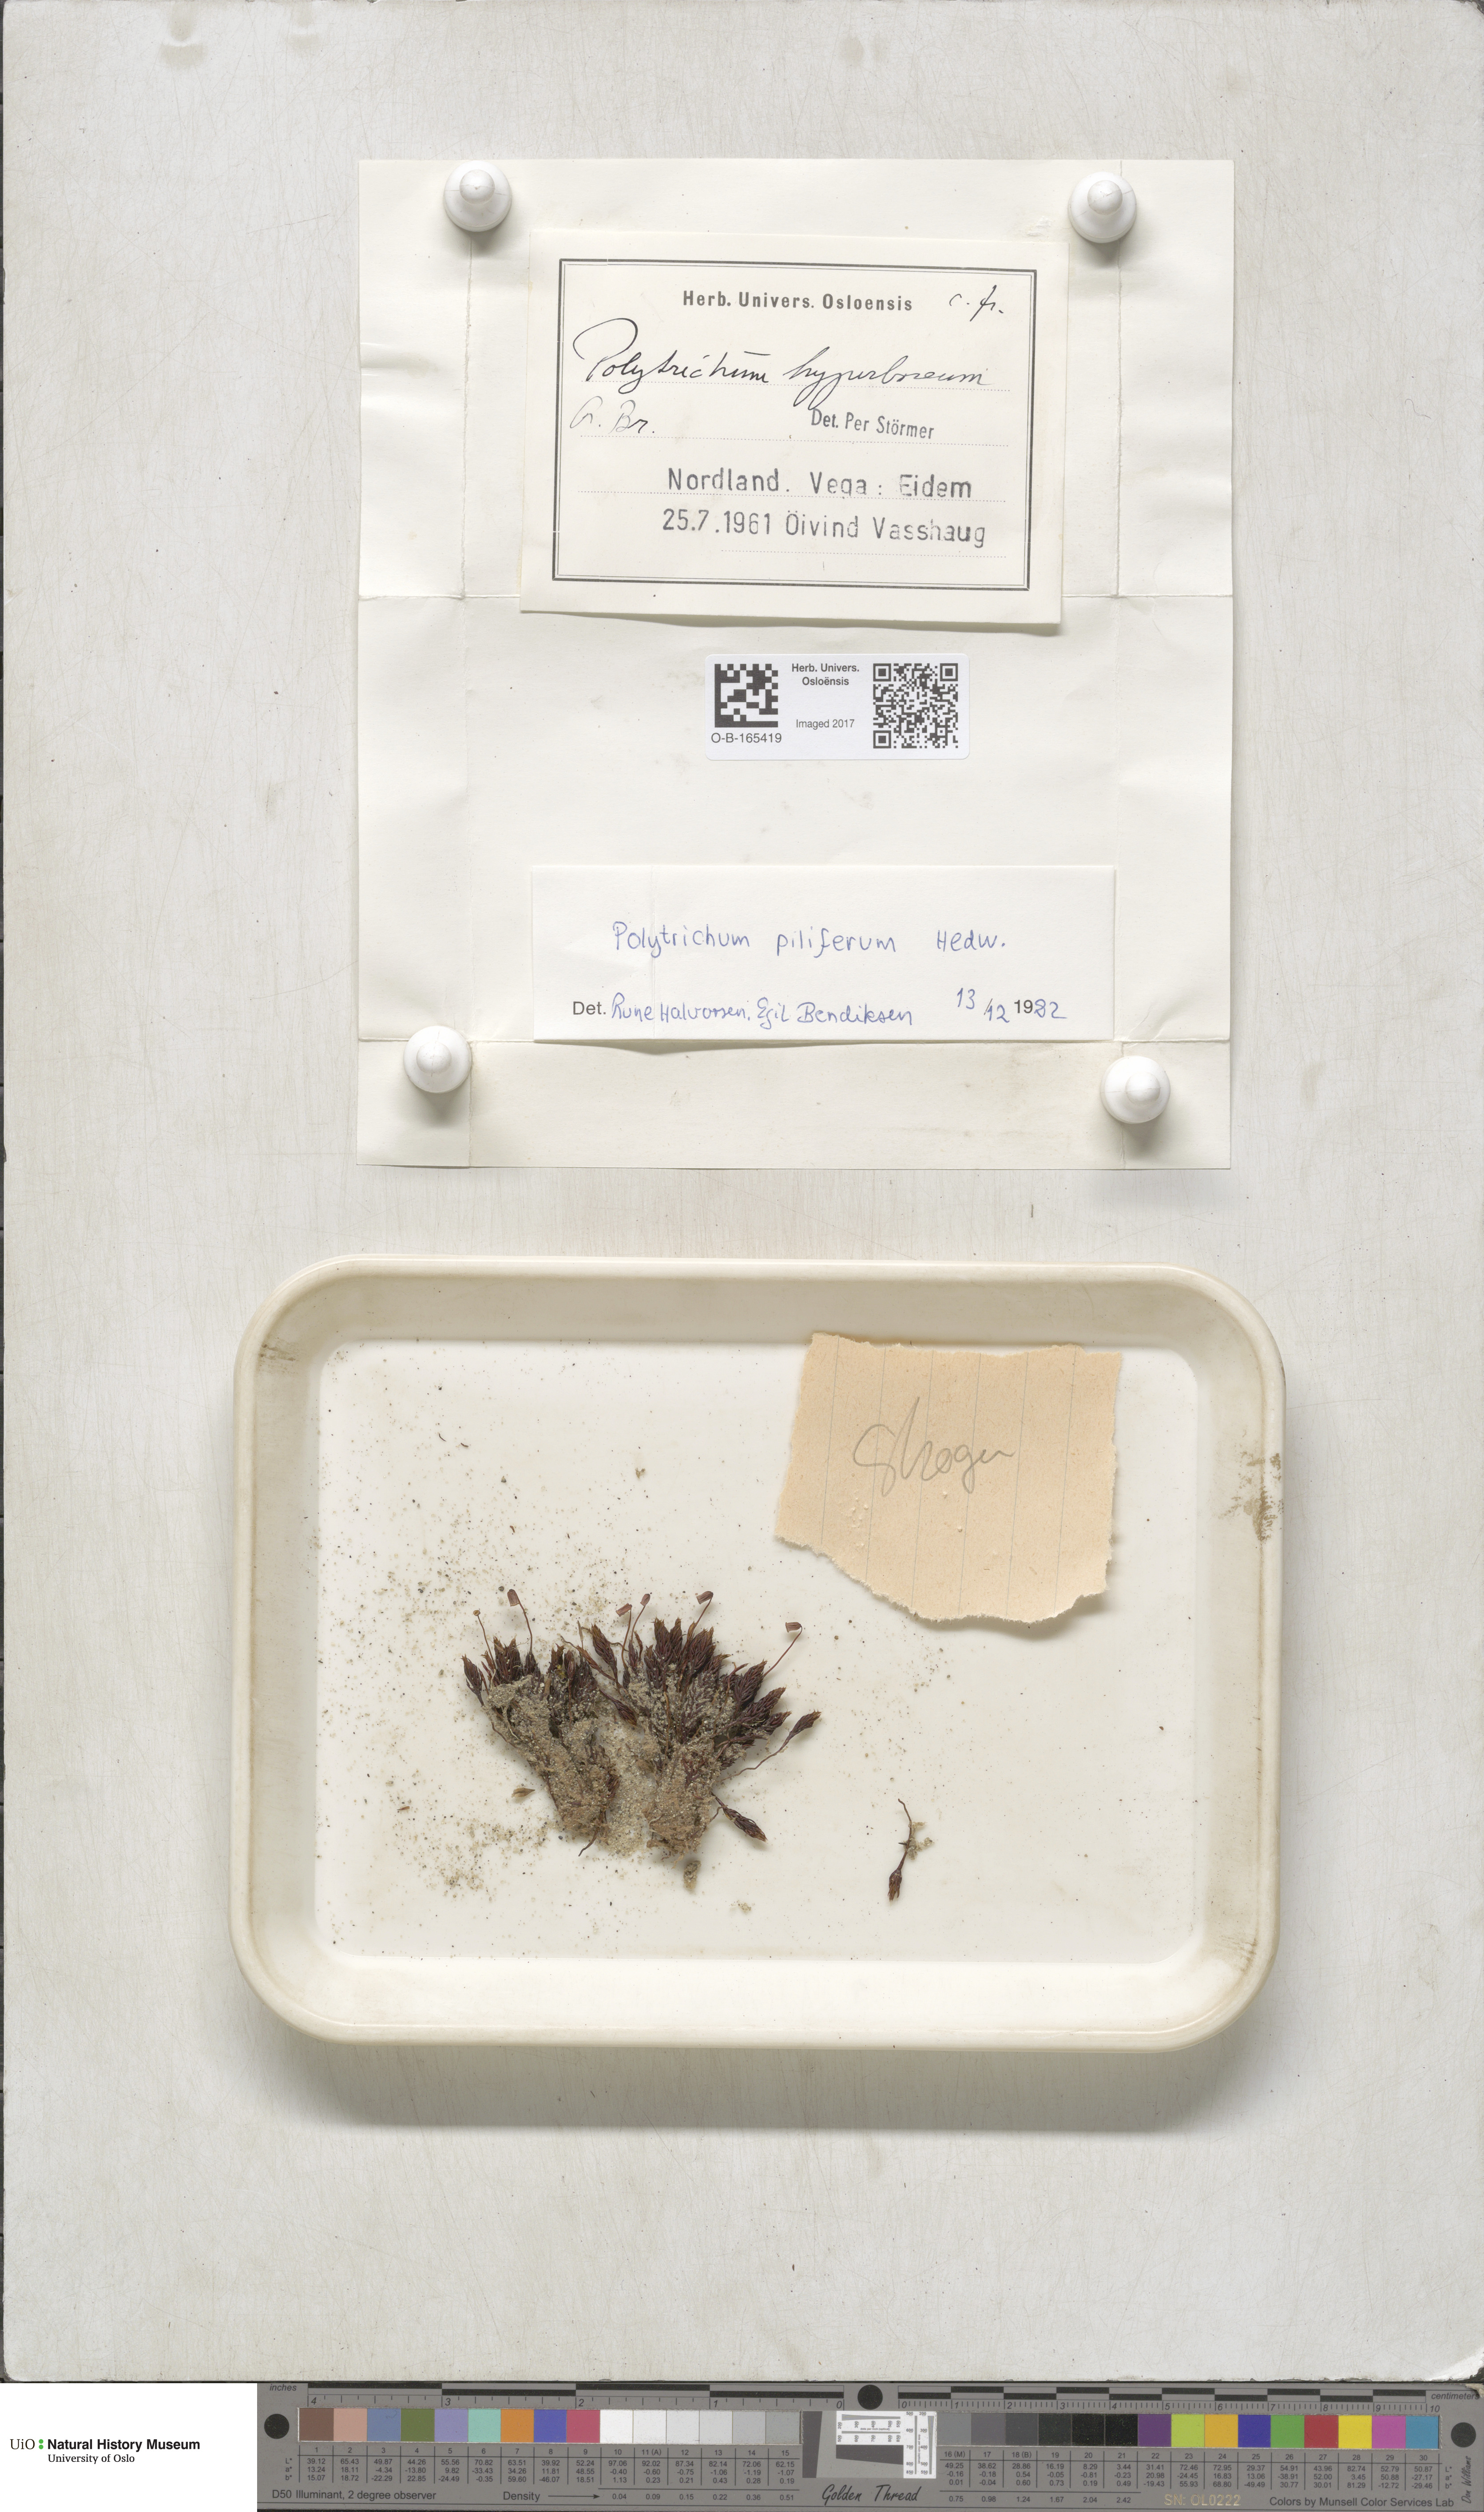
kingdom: Plantae
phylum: Bryophyta
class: Polytrichopsida
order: Polytrichales
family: Polytrichaceae
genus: Polytrichum
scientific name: Polytrichum piliferum
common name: Bristly haircap
